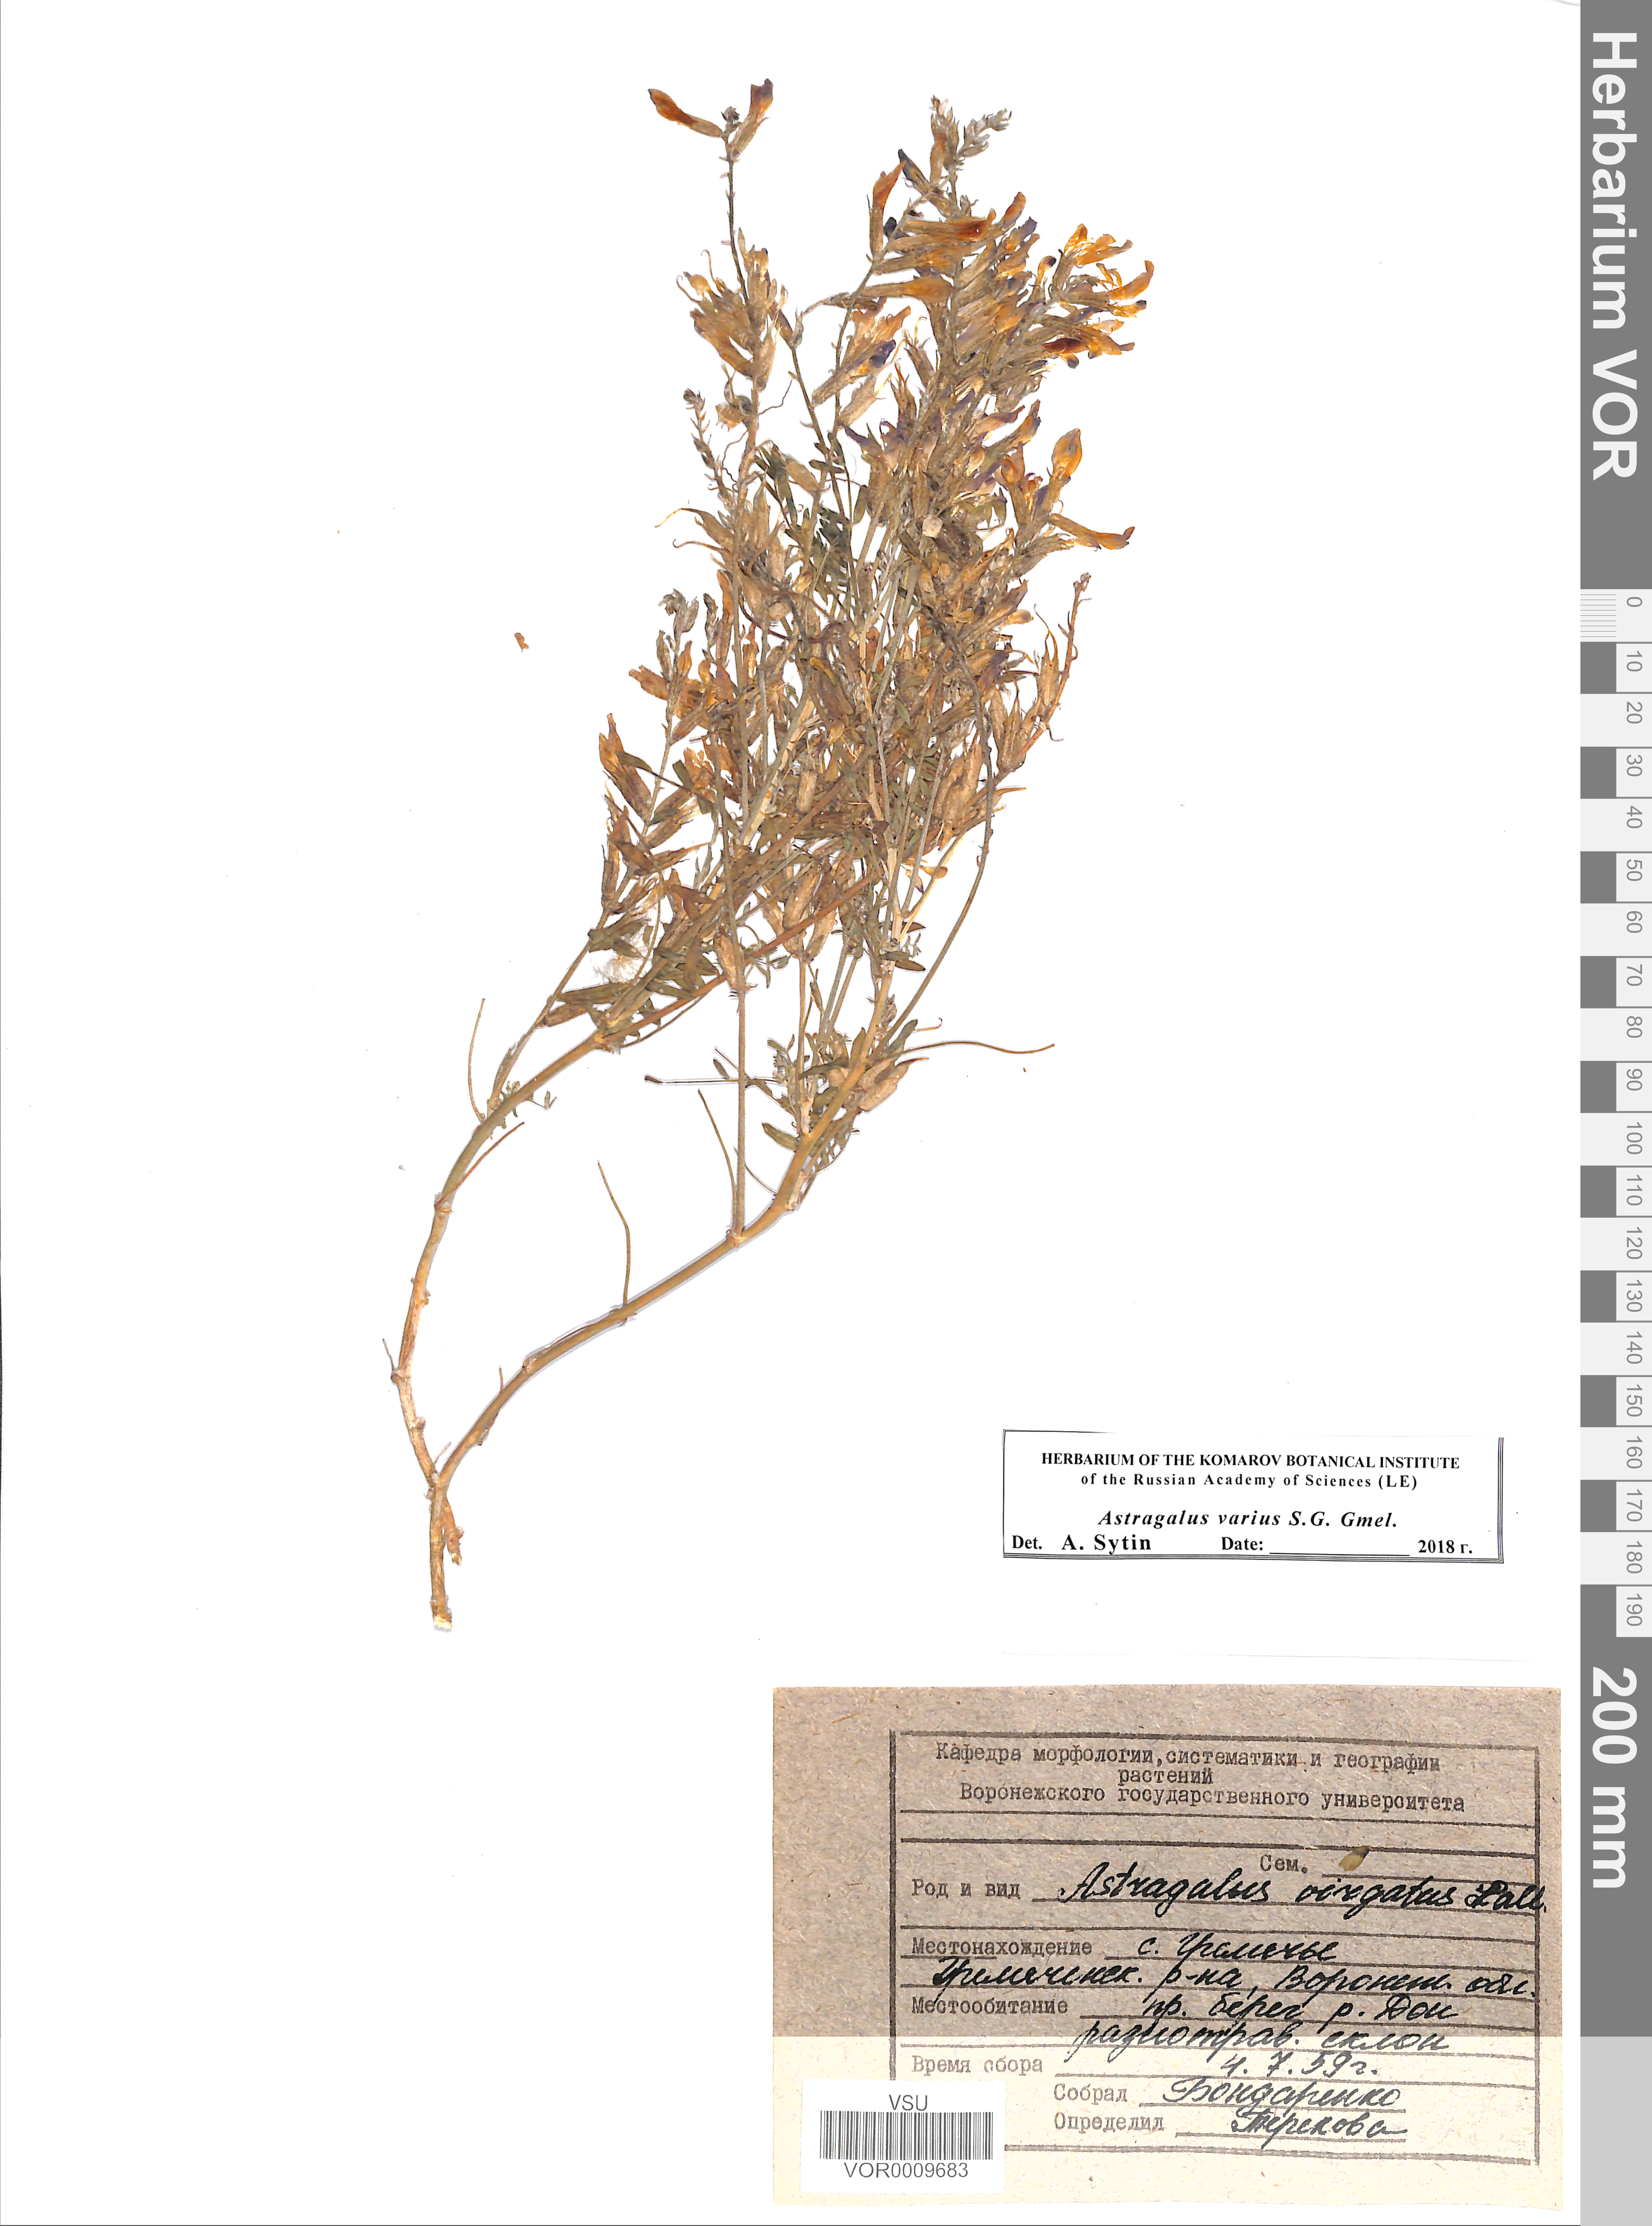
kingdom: Plantae
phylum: Tracheophyta
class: Magnoliopsida
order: Fabales
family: Fabaceae
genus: Astragalus
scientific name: Astragalus varius
